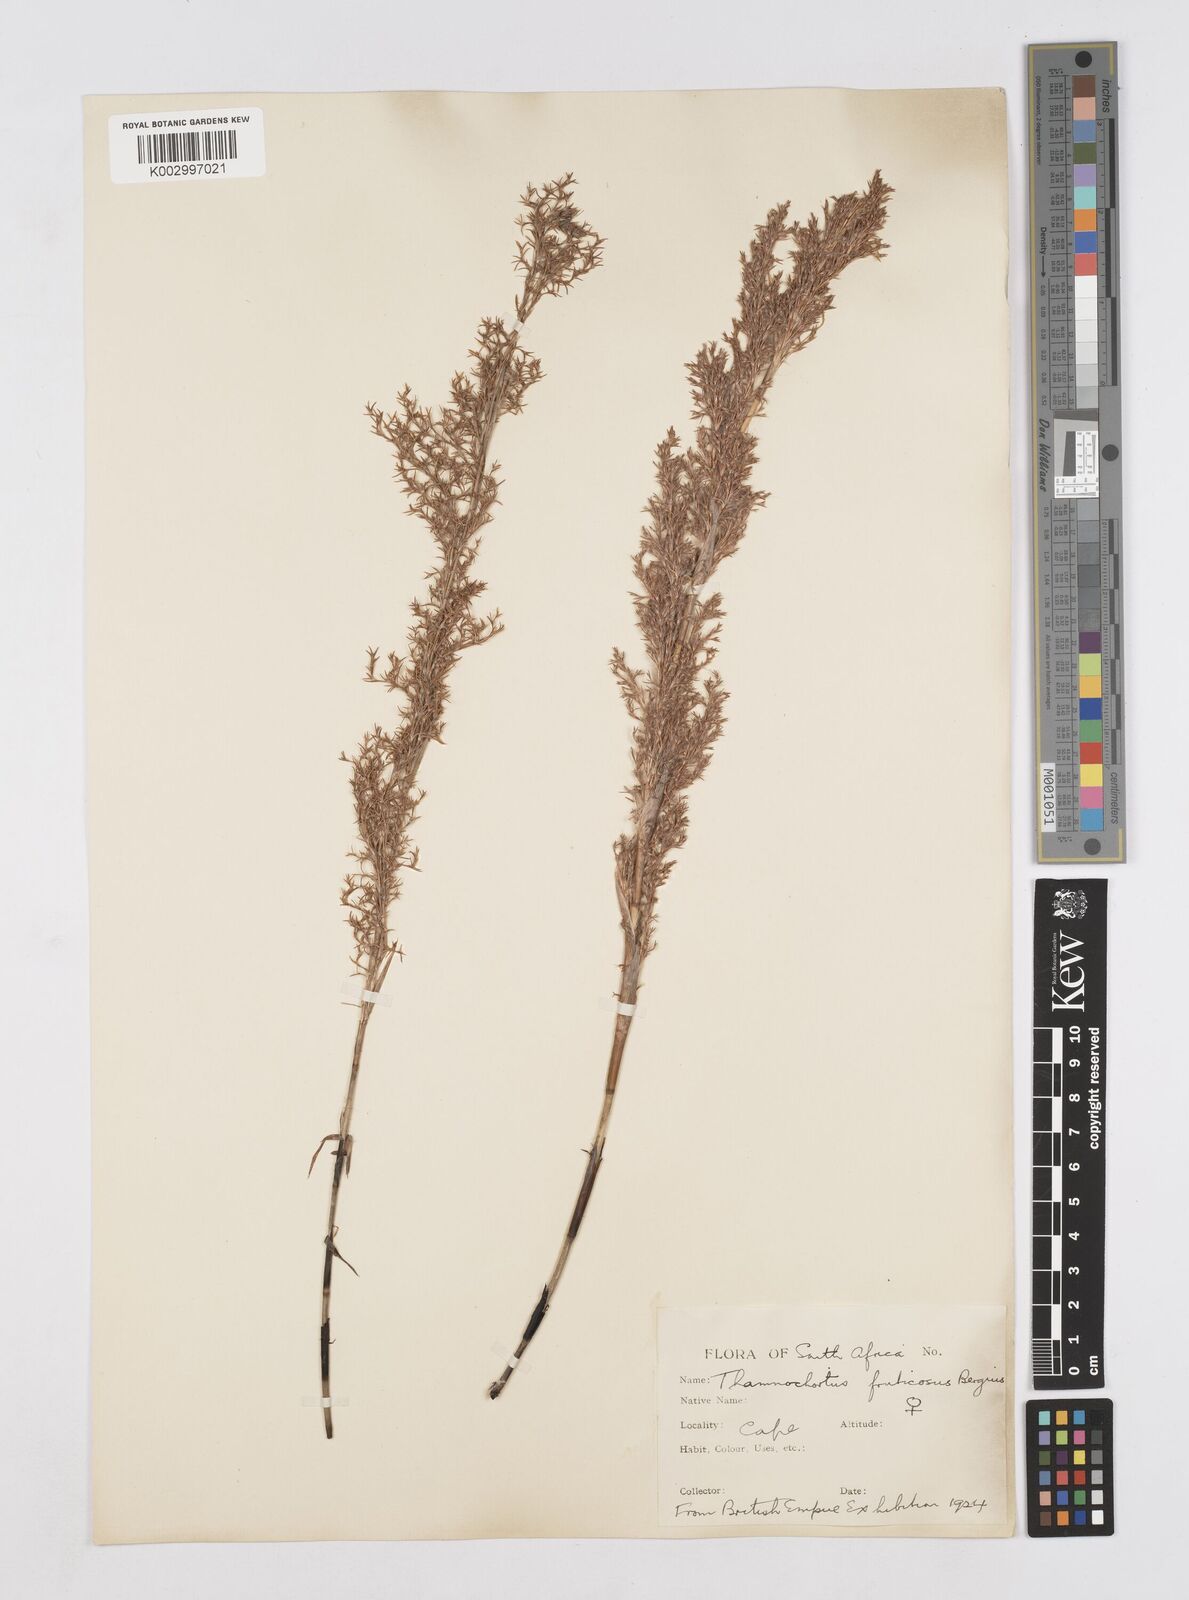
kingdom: Plantae
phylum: Tracheophyta
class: Liliopsida
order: Poales
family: Restionaceae
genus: Thamnochortus
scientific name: Thamnochortus fruticosus
